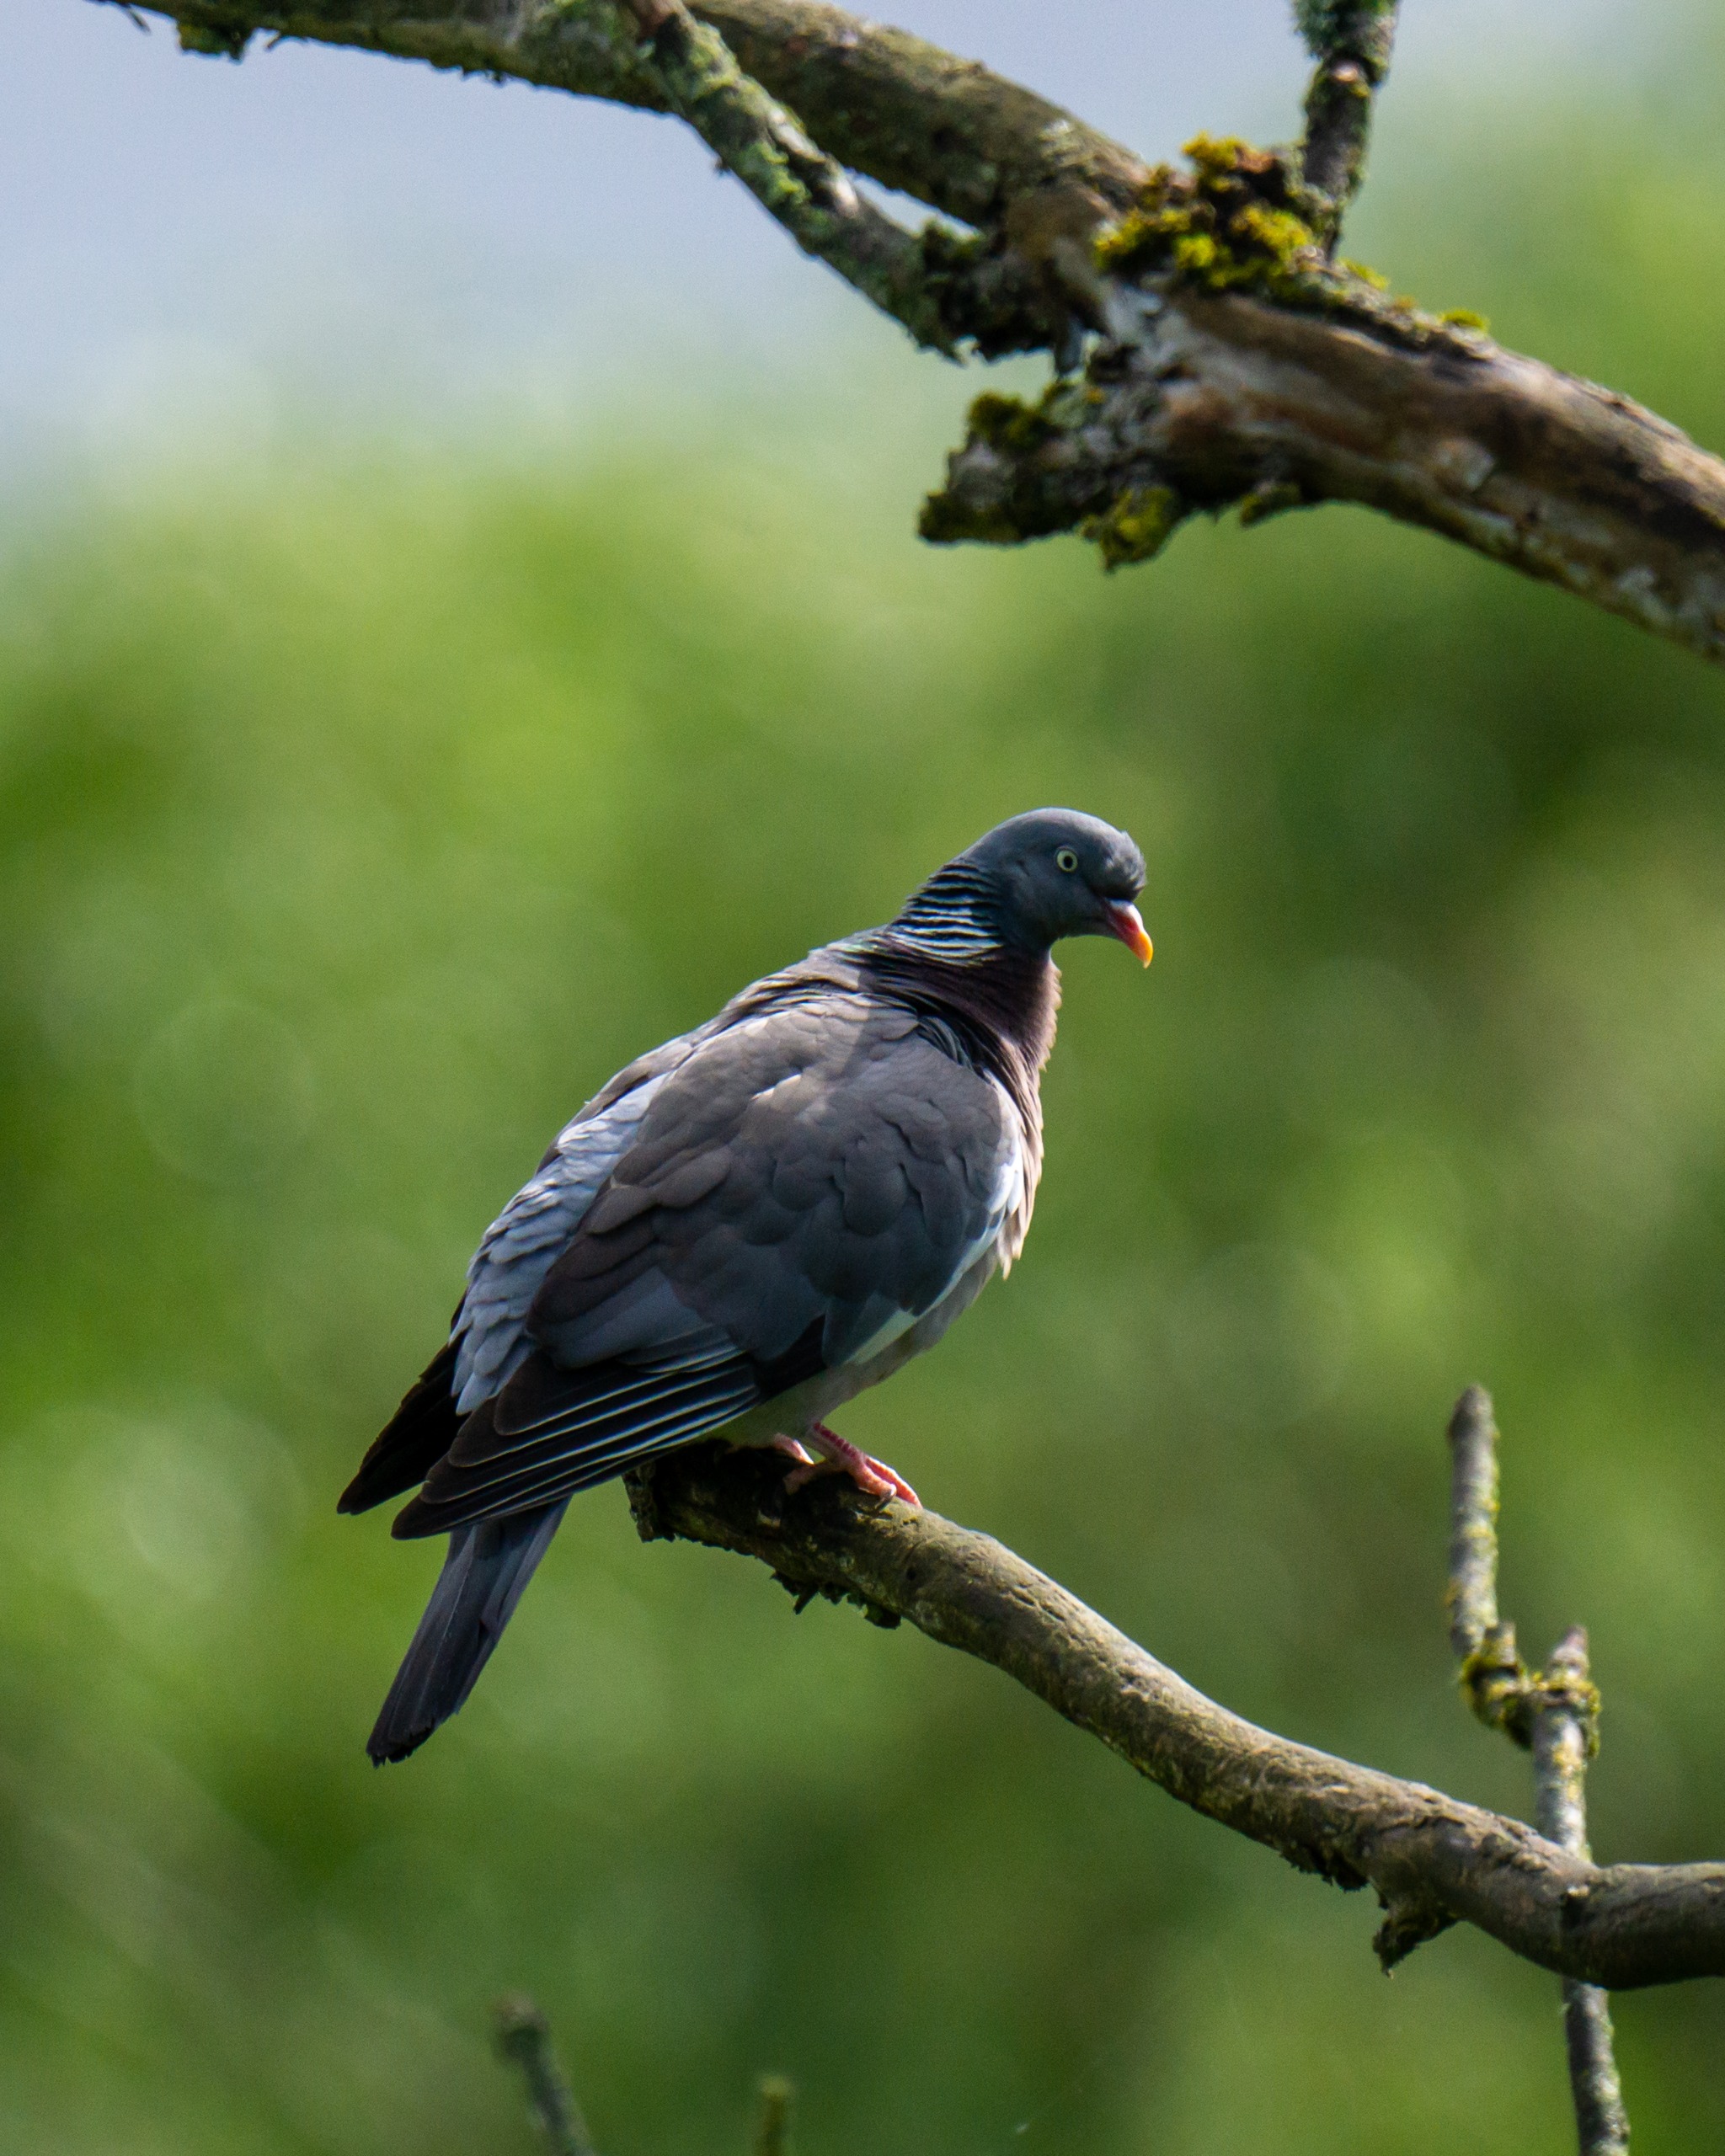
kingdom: Animalia
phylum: Chordata
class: Aves
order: Columbiformes
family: Columbidae
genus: Columba
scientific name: Columba palumbus
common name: Ringdue
